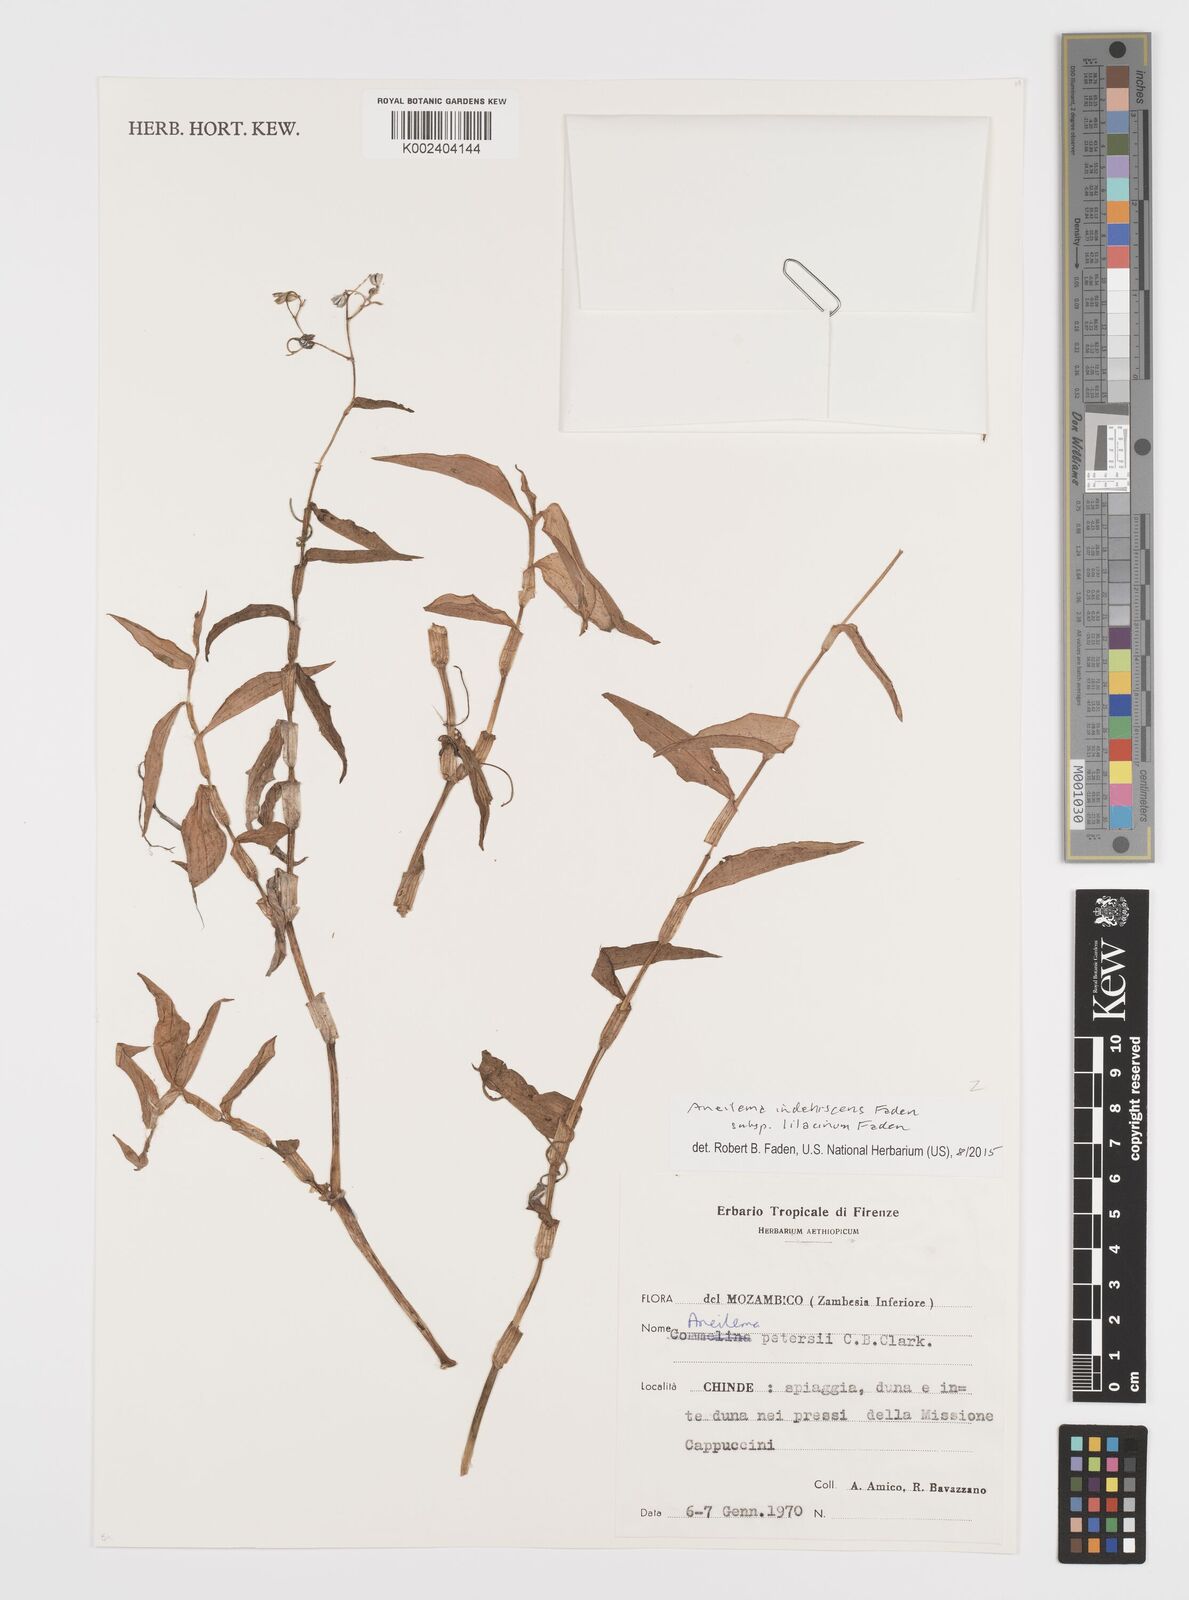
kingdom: Plantae
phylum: Tracheophyta
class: Liliopsida
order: Commelinales
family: Commelinaceae
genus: Aneilema
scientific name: Aneilema indehiscens
